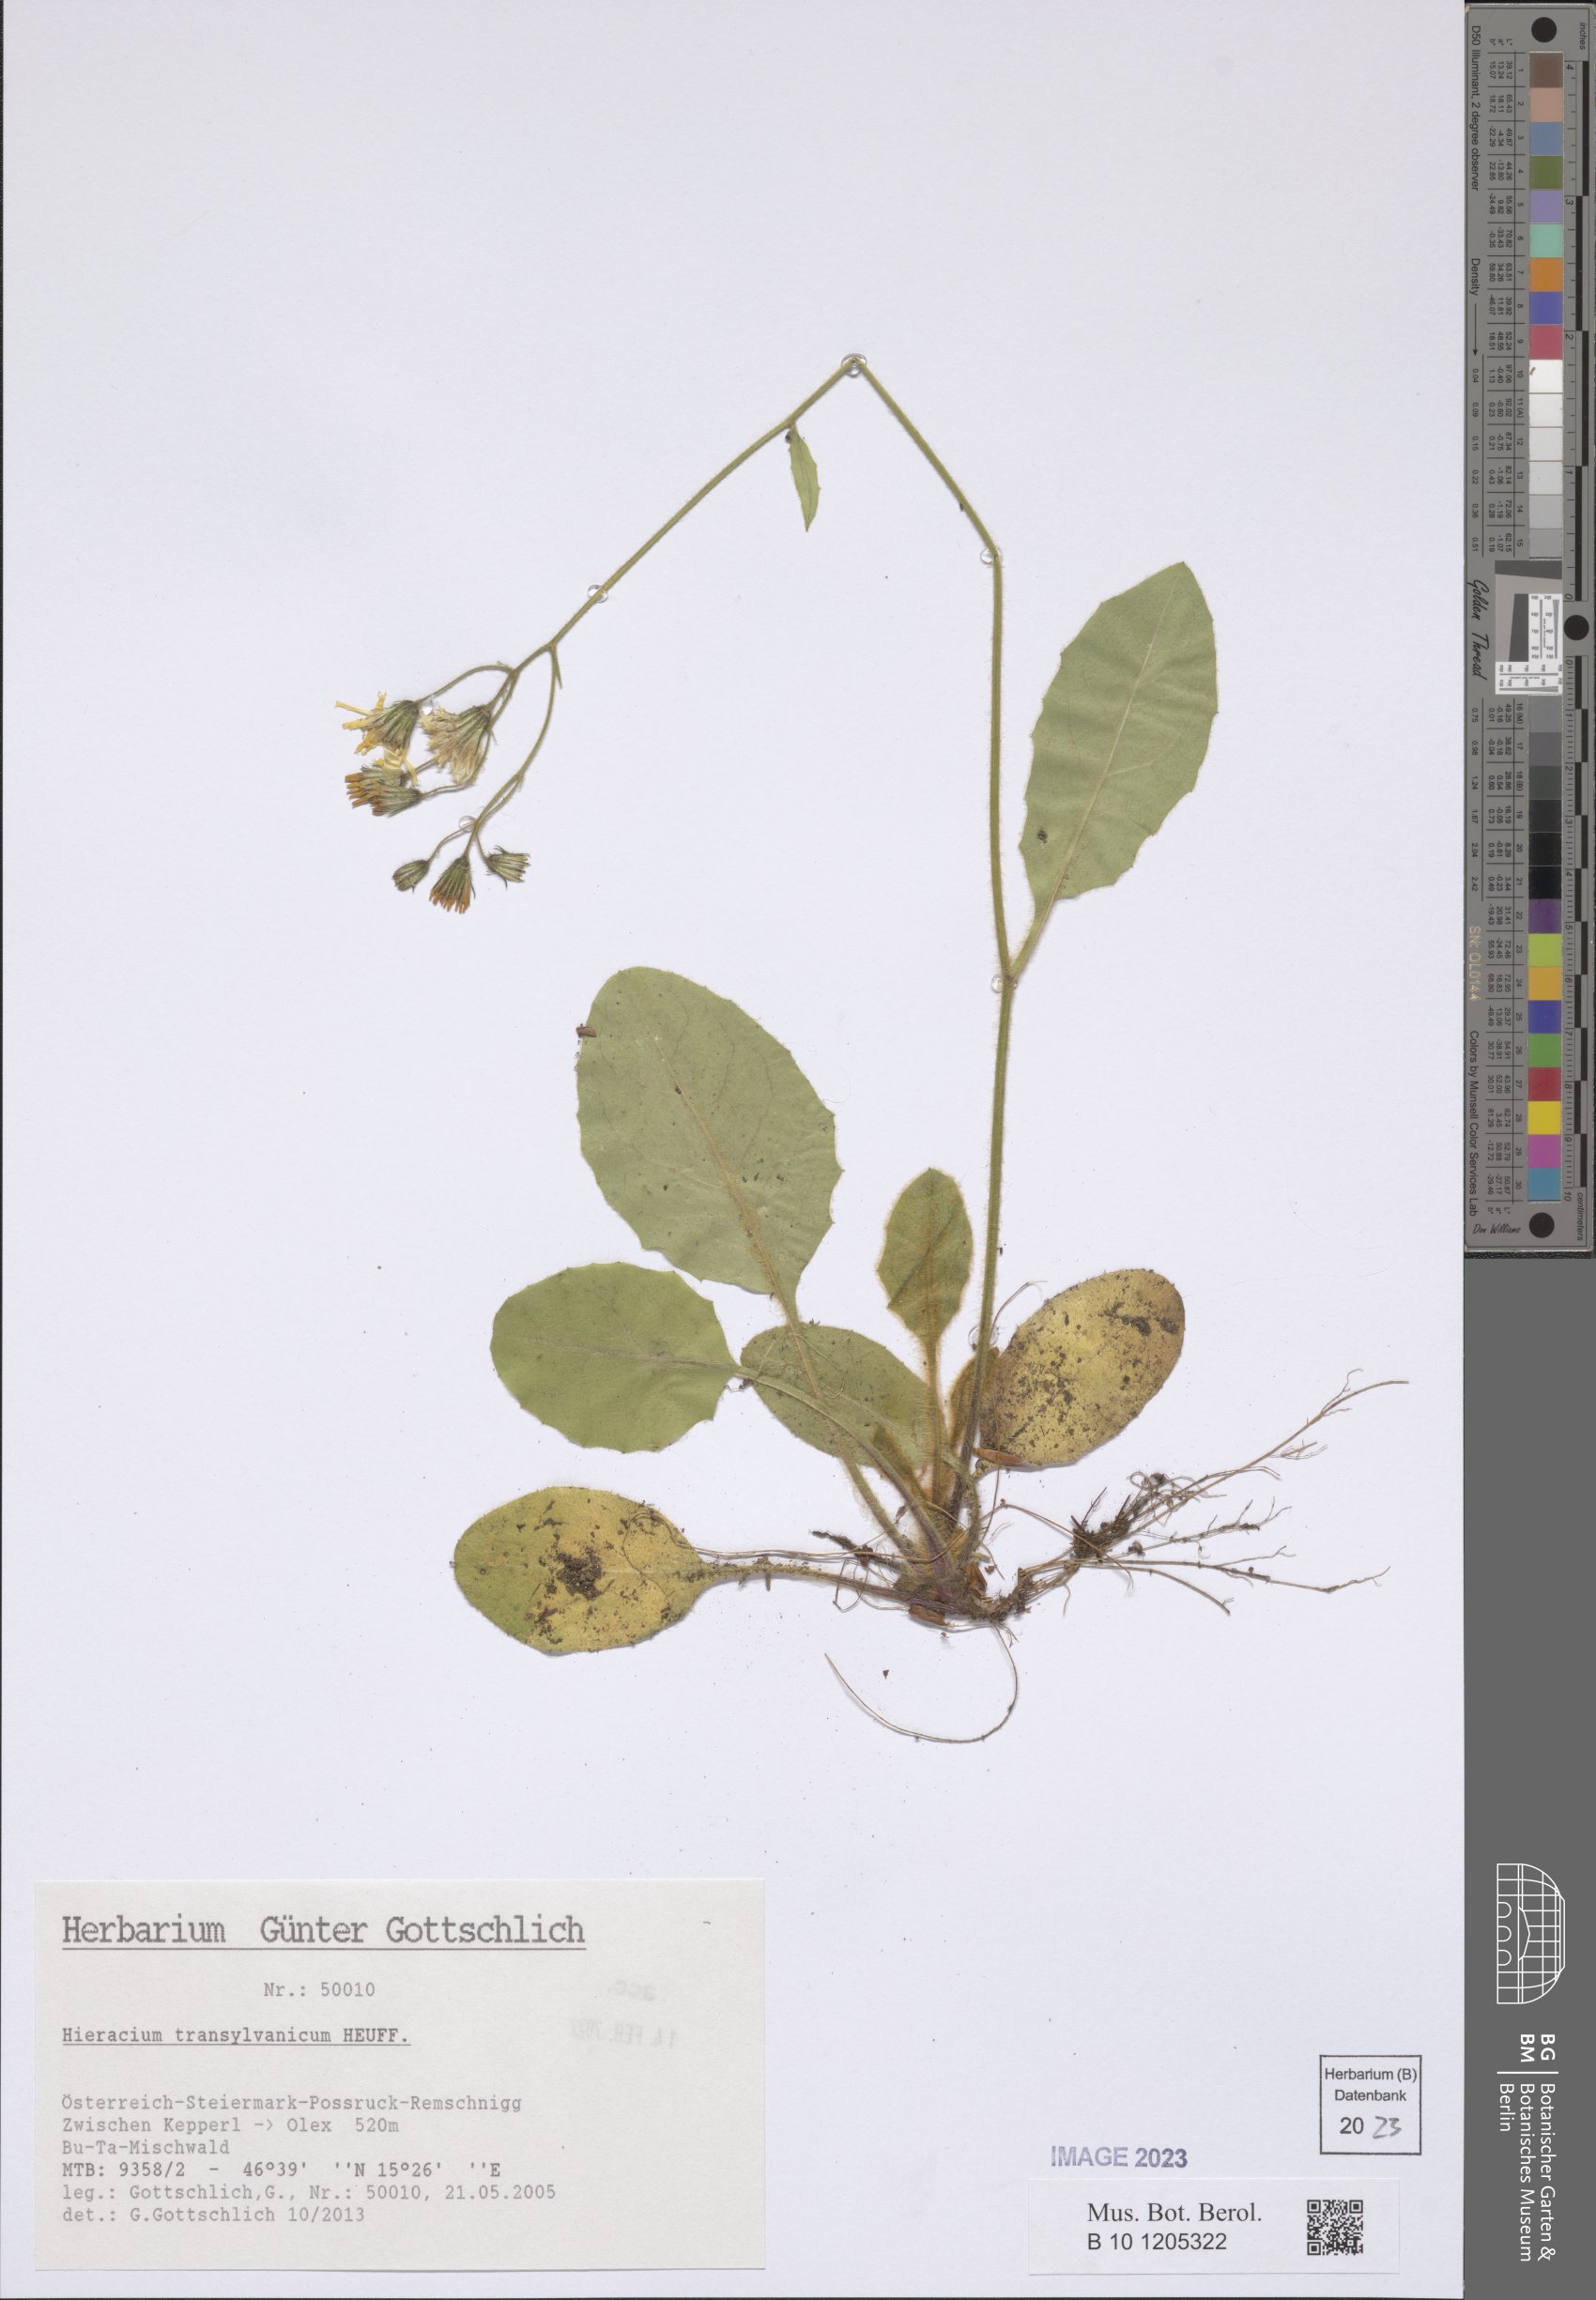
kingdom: Plantae
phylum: Tracheophyta
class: Magnoliopsida
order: Asterales
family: Asteraceae
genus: Hieracium
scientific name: Hieracium transylvanicum
